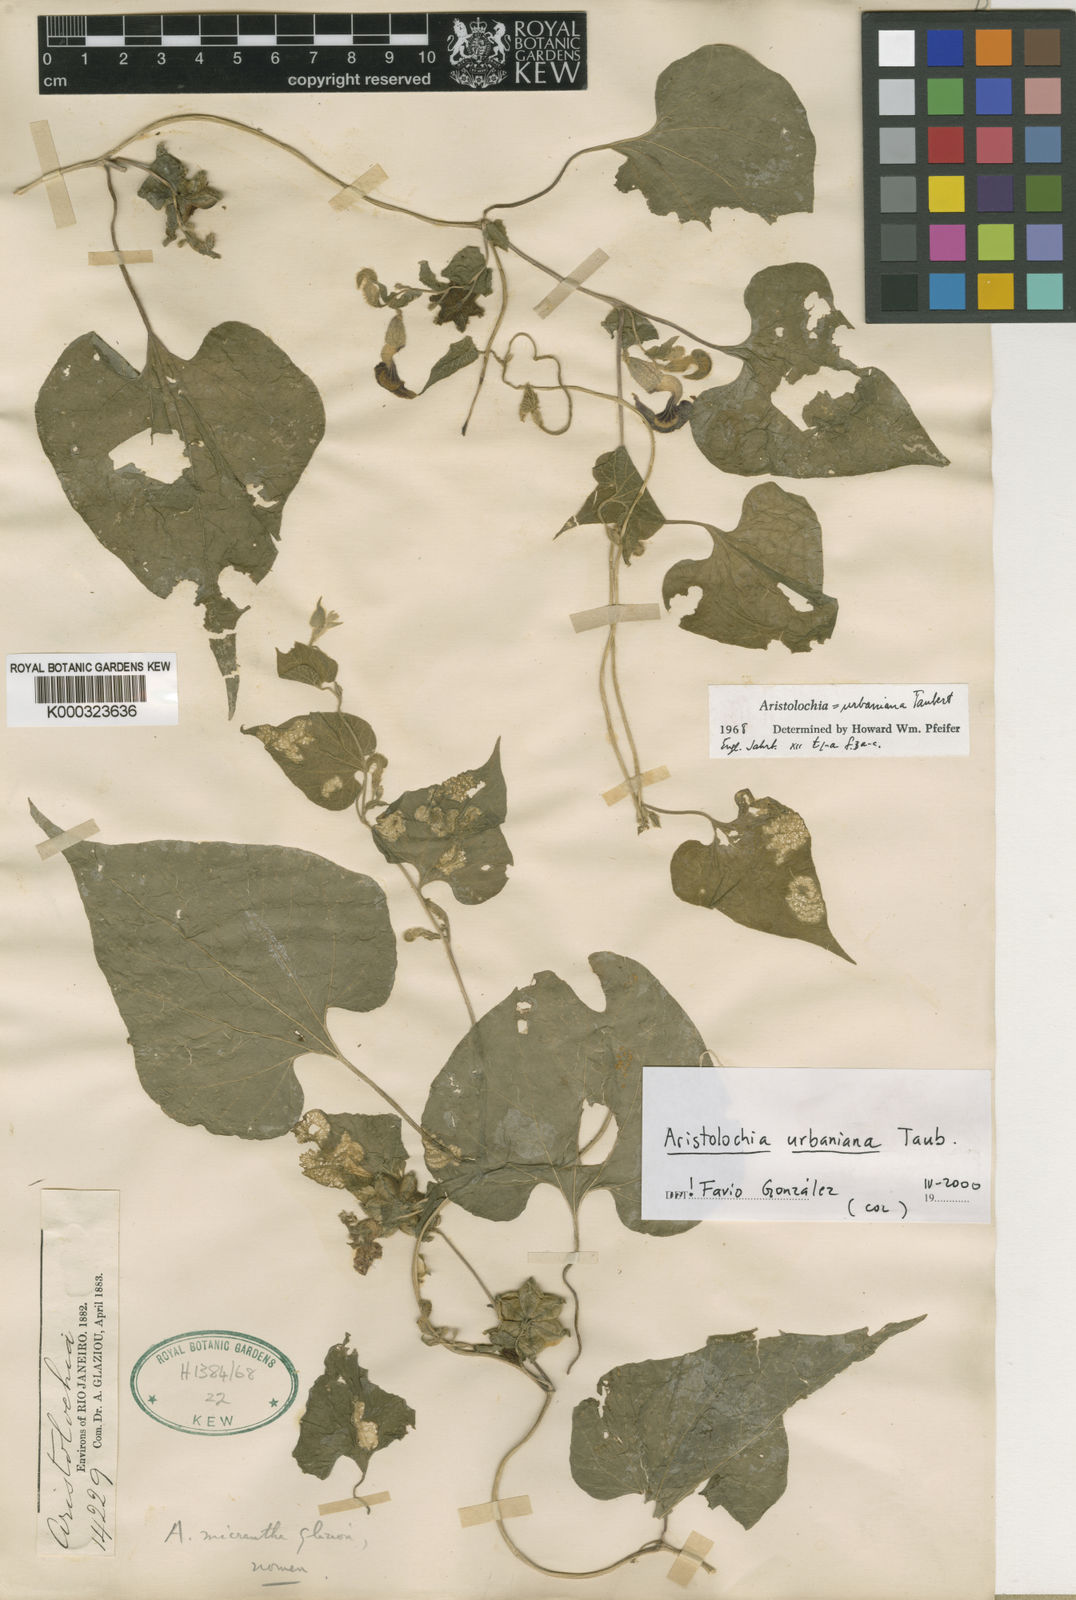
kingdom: Plantae
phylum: Tracheophyta
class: Magnoliopsida
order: Piperales
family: Aristolochiaceae
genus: Aristolochia
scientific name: Aristolochia urbaniana
